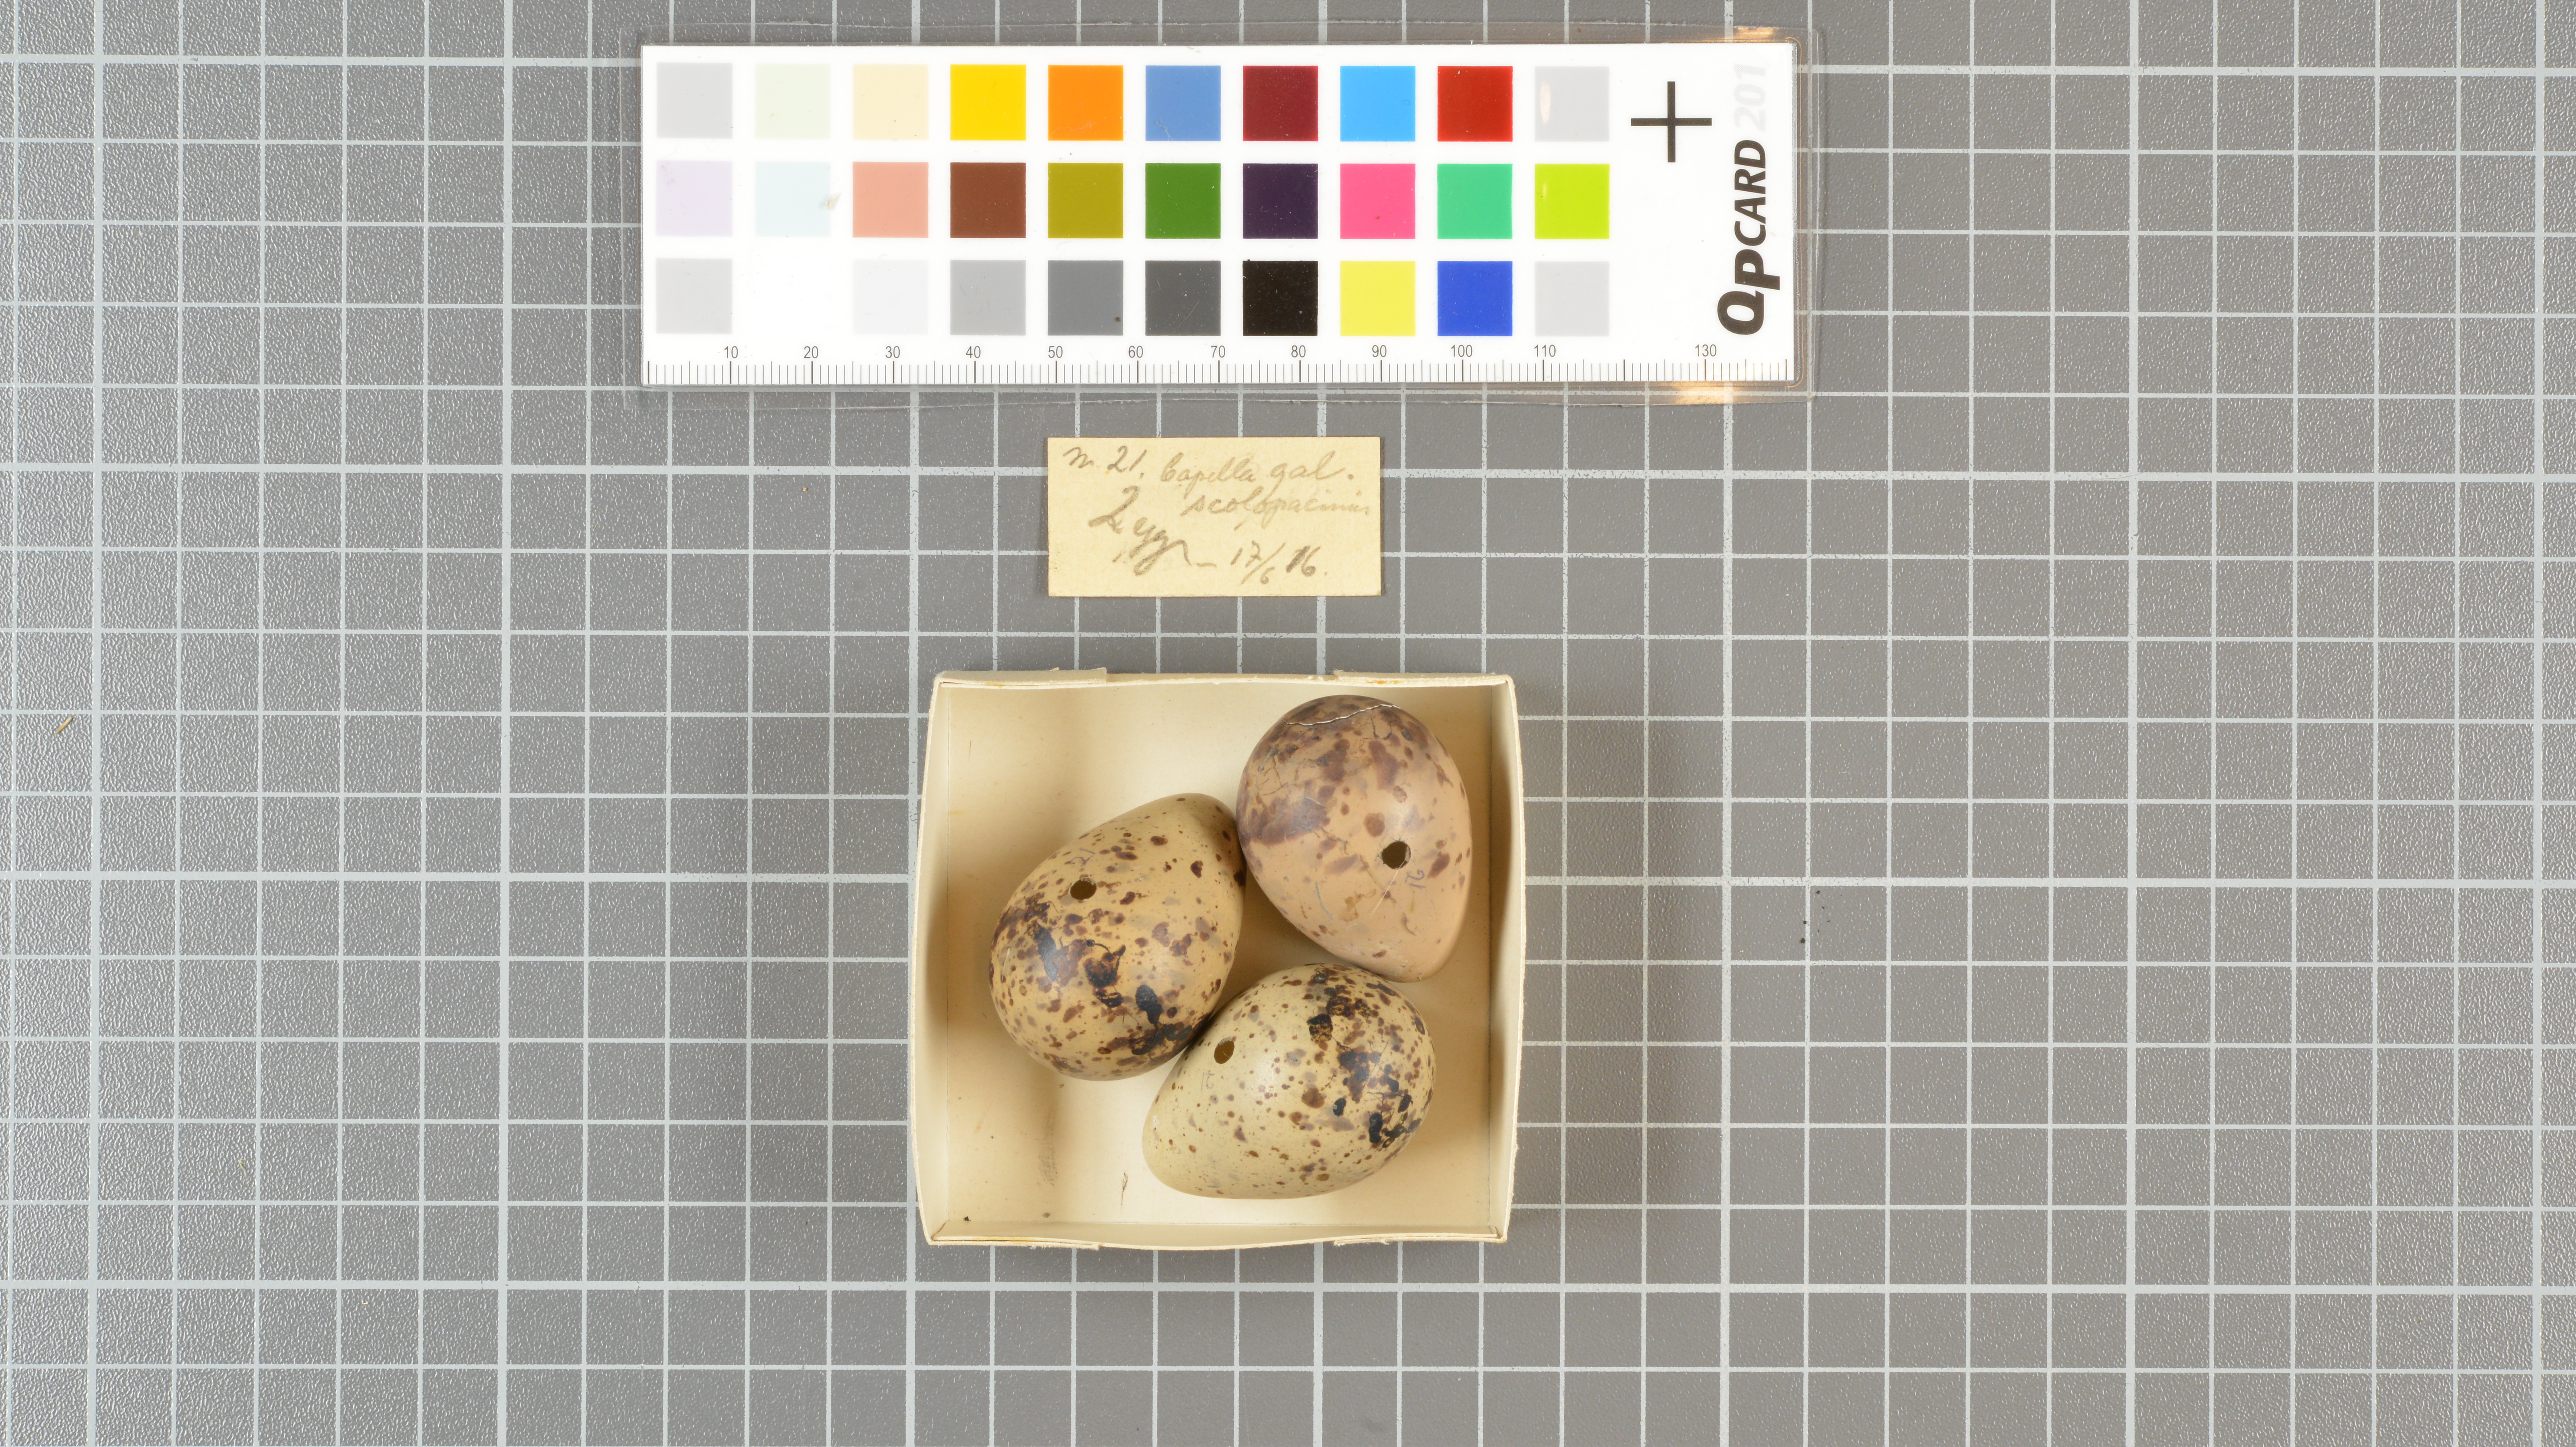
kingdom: Animalia
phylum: Chordata
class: Aves
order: Charadriiformes
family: Scolopacidae
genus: Gallinago
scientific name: Gallinago gallinago
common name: Common snipe
